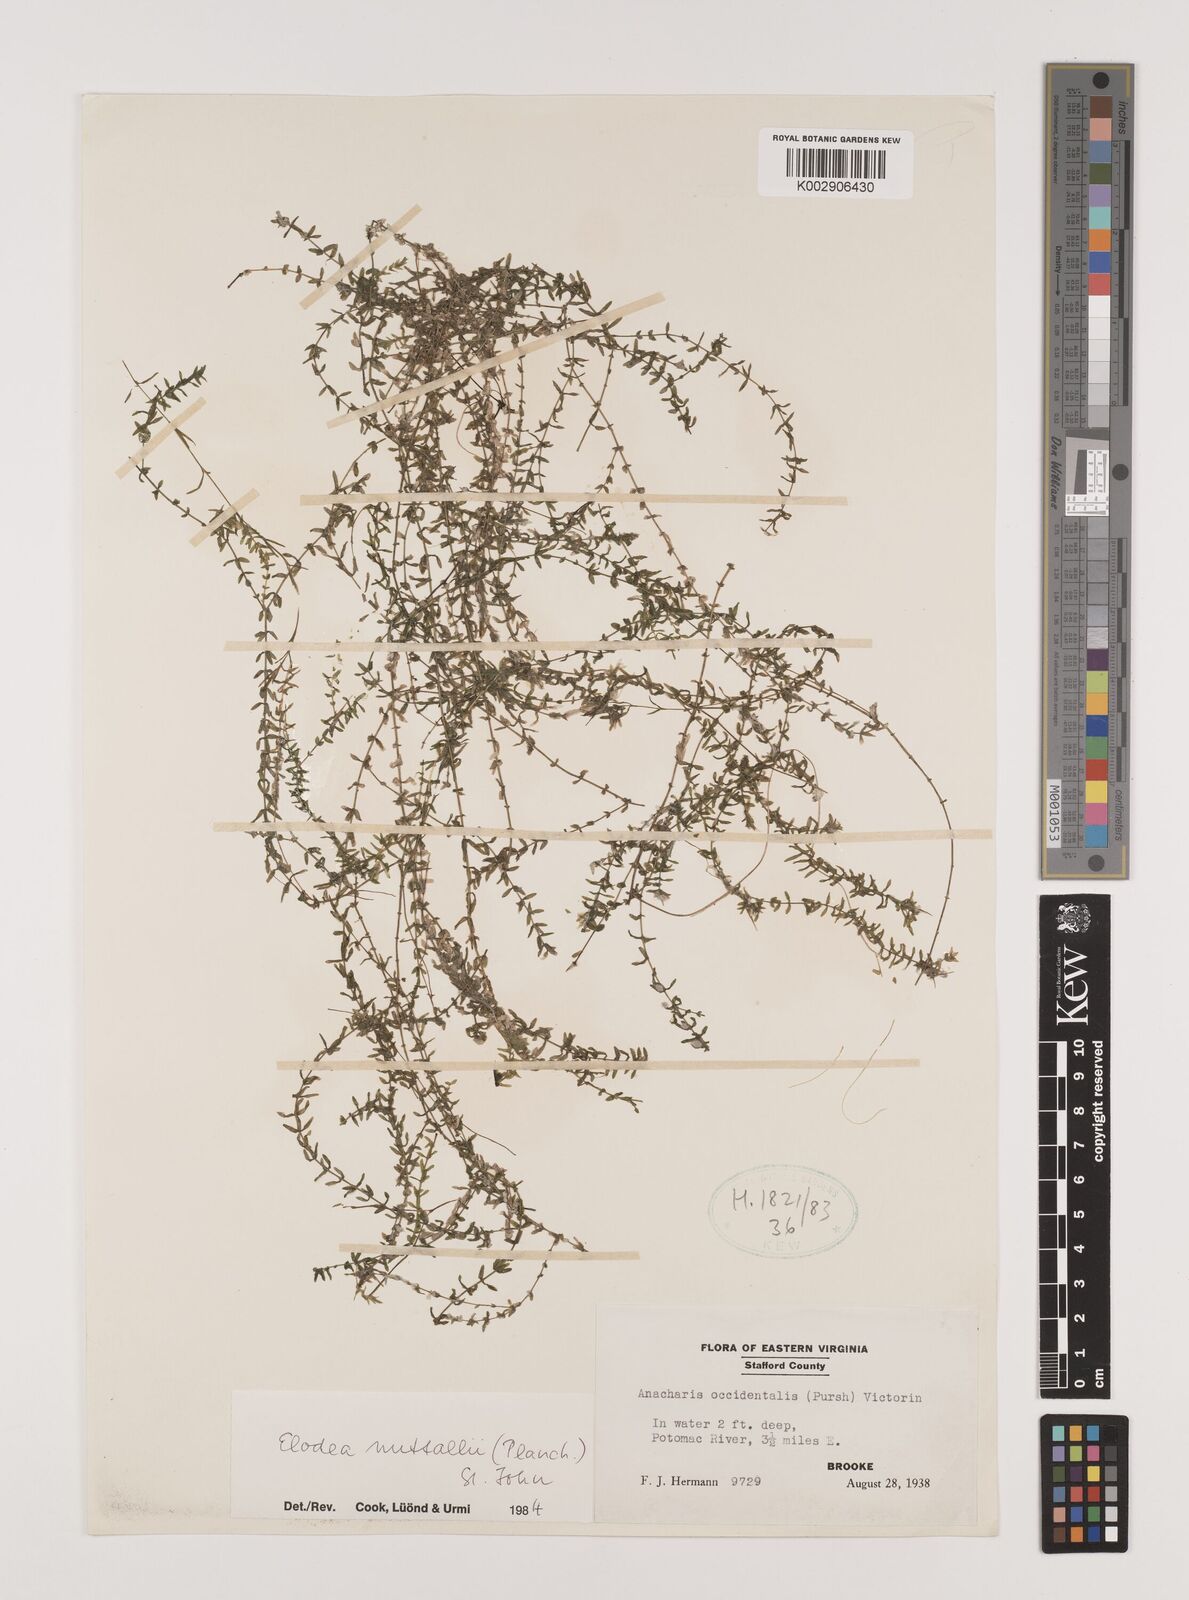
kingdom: Plantae
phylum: Tracheophyta
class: Liliopsida
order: Alismatales
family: Hydrocharitaceae
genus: Elodea
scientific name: Elodea nuttallii
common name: Nuttall's waterweed
